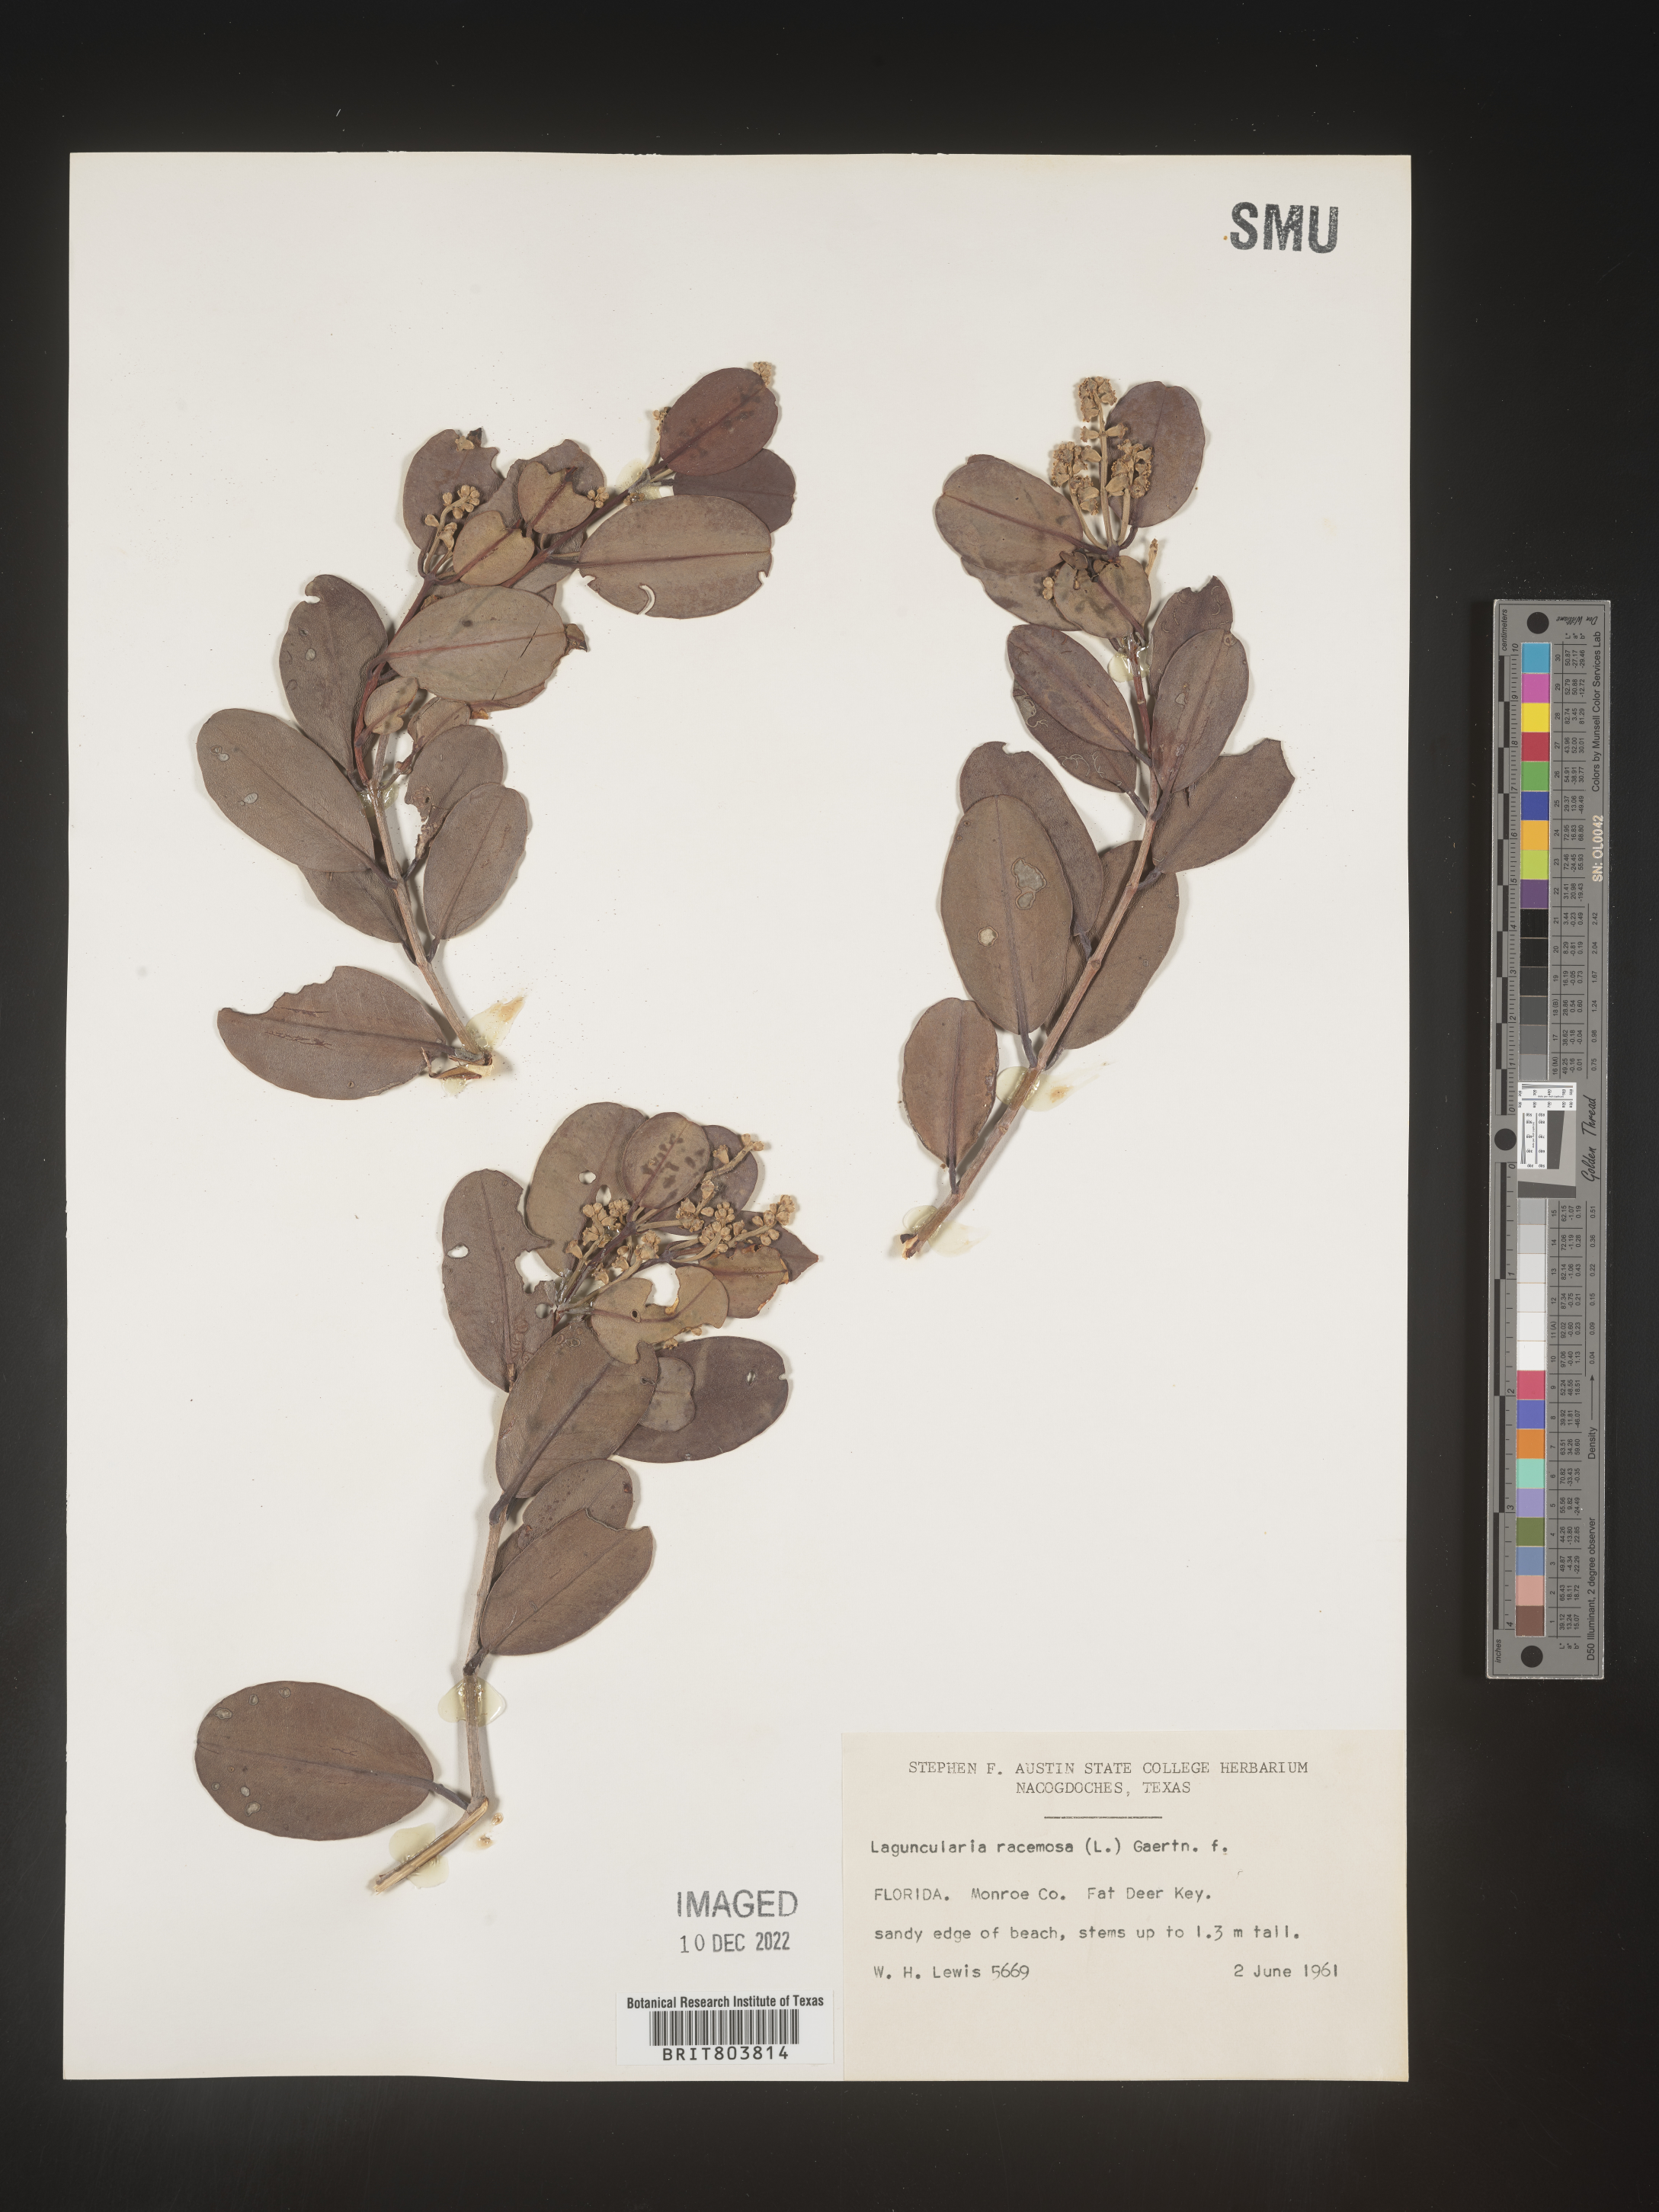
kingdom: Plantae
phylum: Tracheophyta
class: Magnoliopsida
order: Myrtales
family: Combretaceae
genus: Laguncularia
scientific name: Laguncularia
